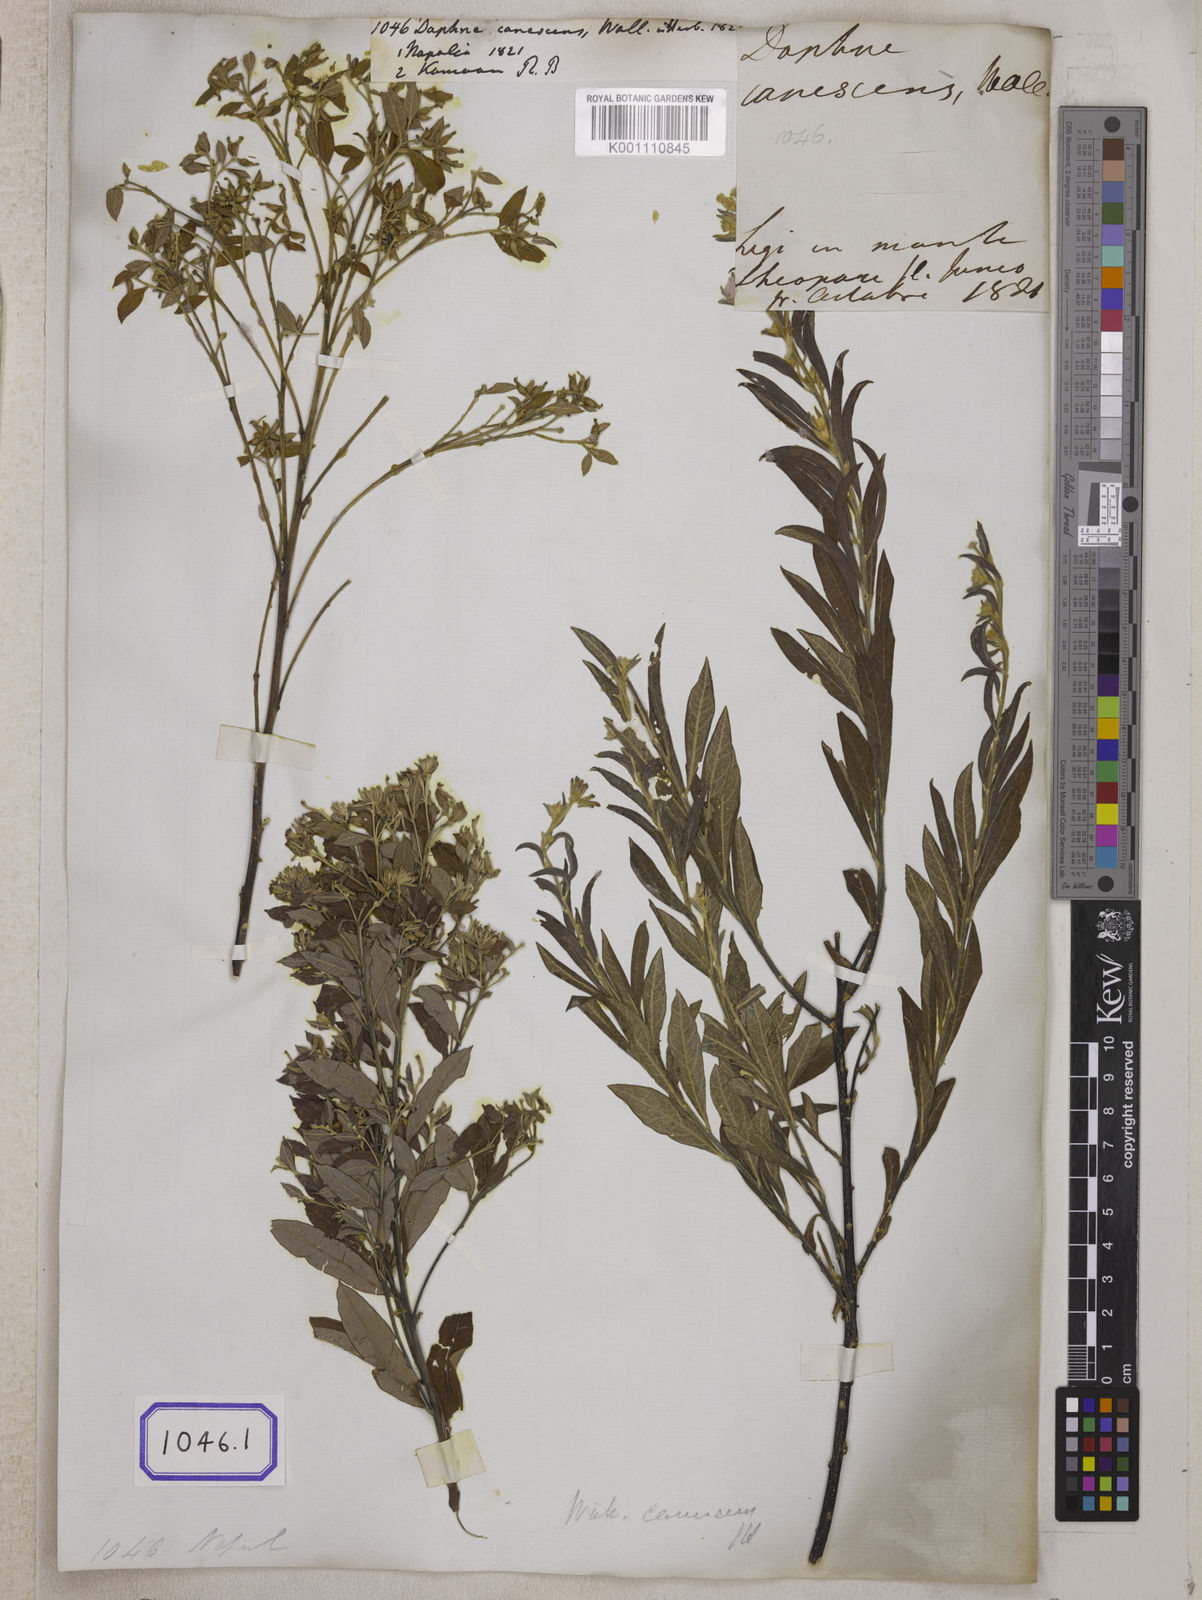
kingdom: Plantae
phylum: Tracheophyta
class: Magnoliopsida
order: Malvales
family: Thymelaeaceae
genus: Daphne
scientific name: Daphne
